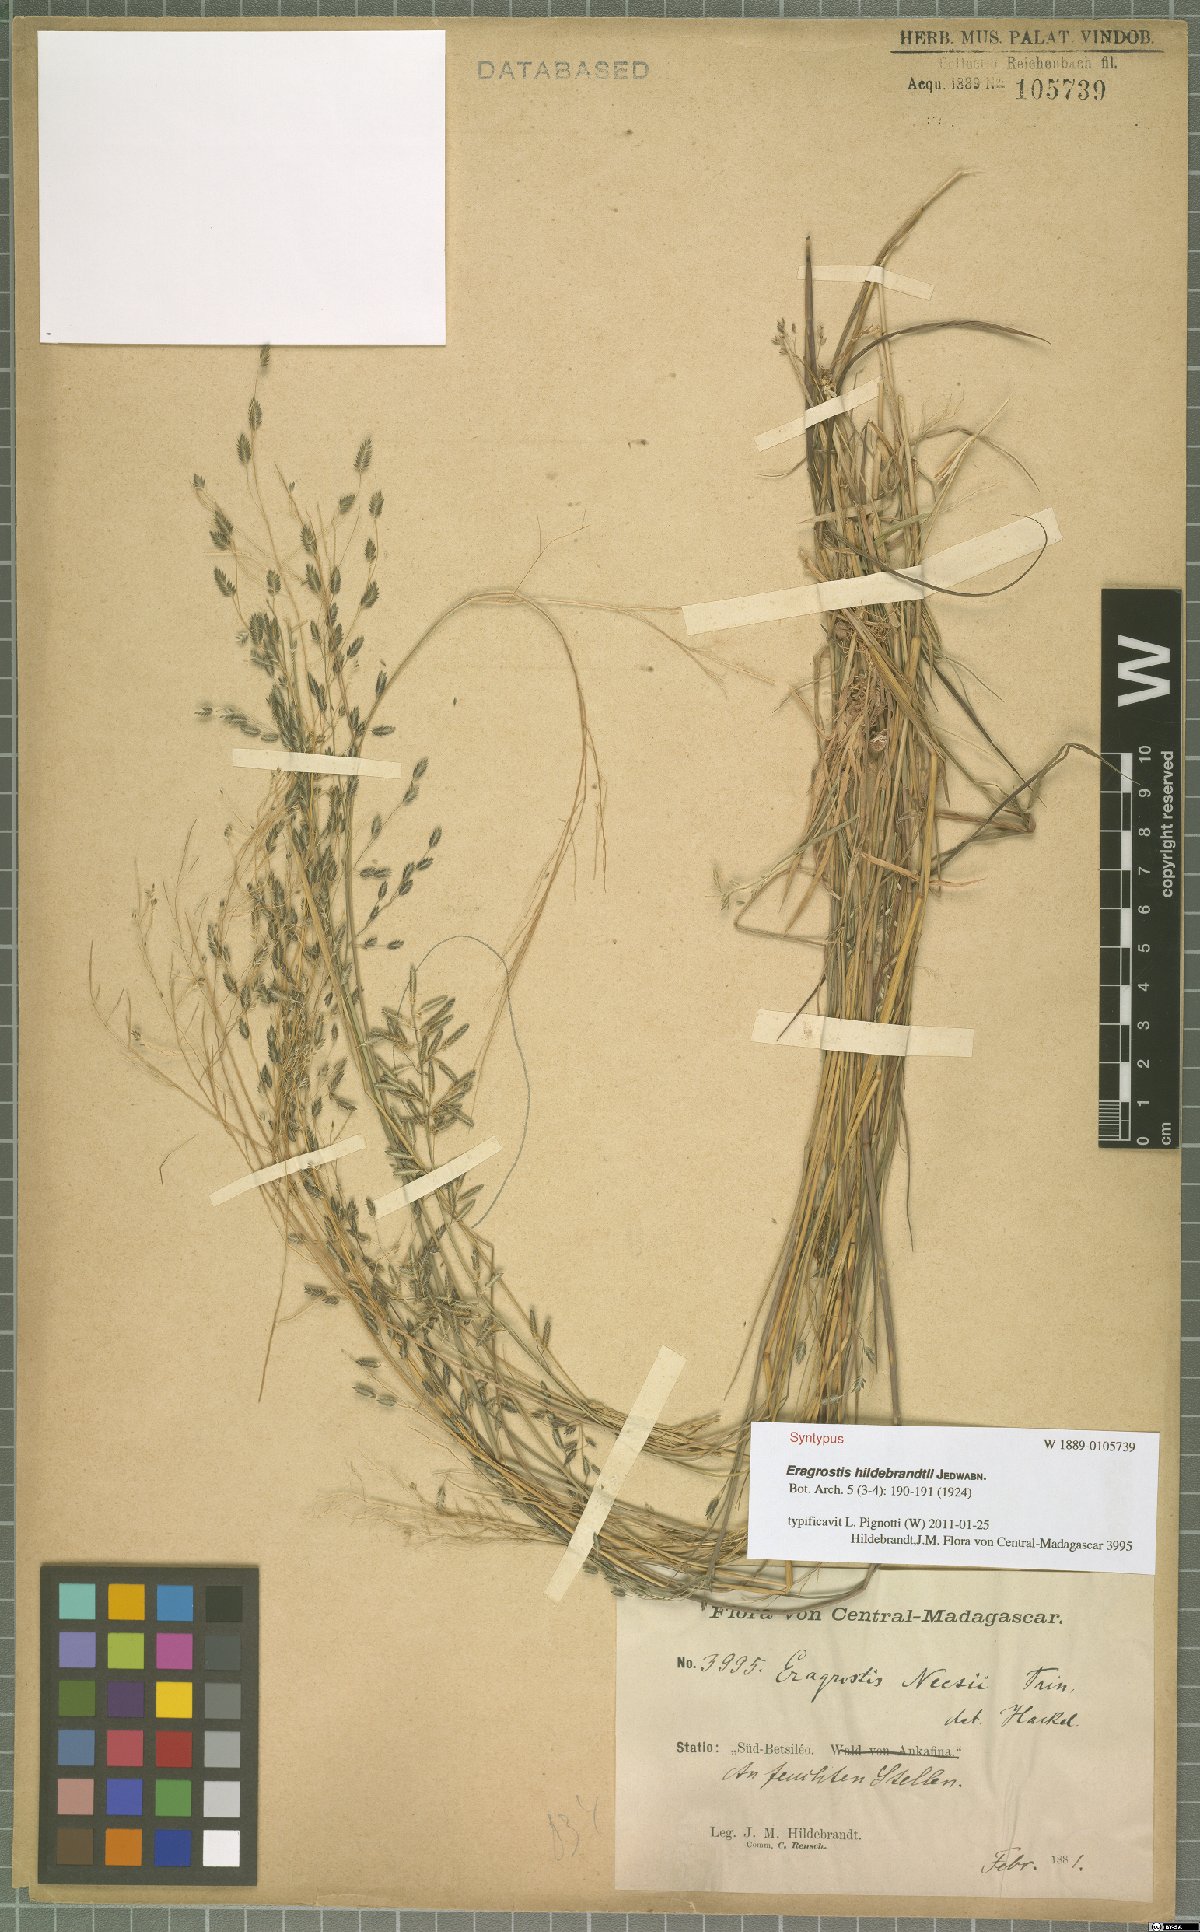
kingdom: Plantae
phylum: Tracheophyta
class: Liliopsida
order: Poales
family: Poaceae
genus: Eragrostis
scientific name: Eragrostis hildebrandtii
